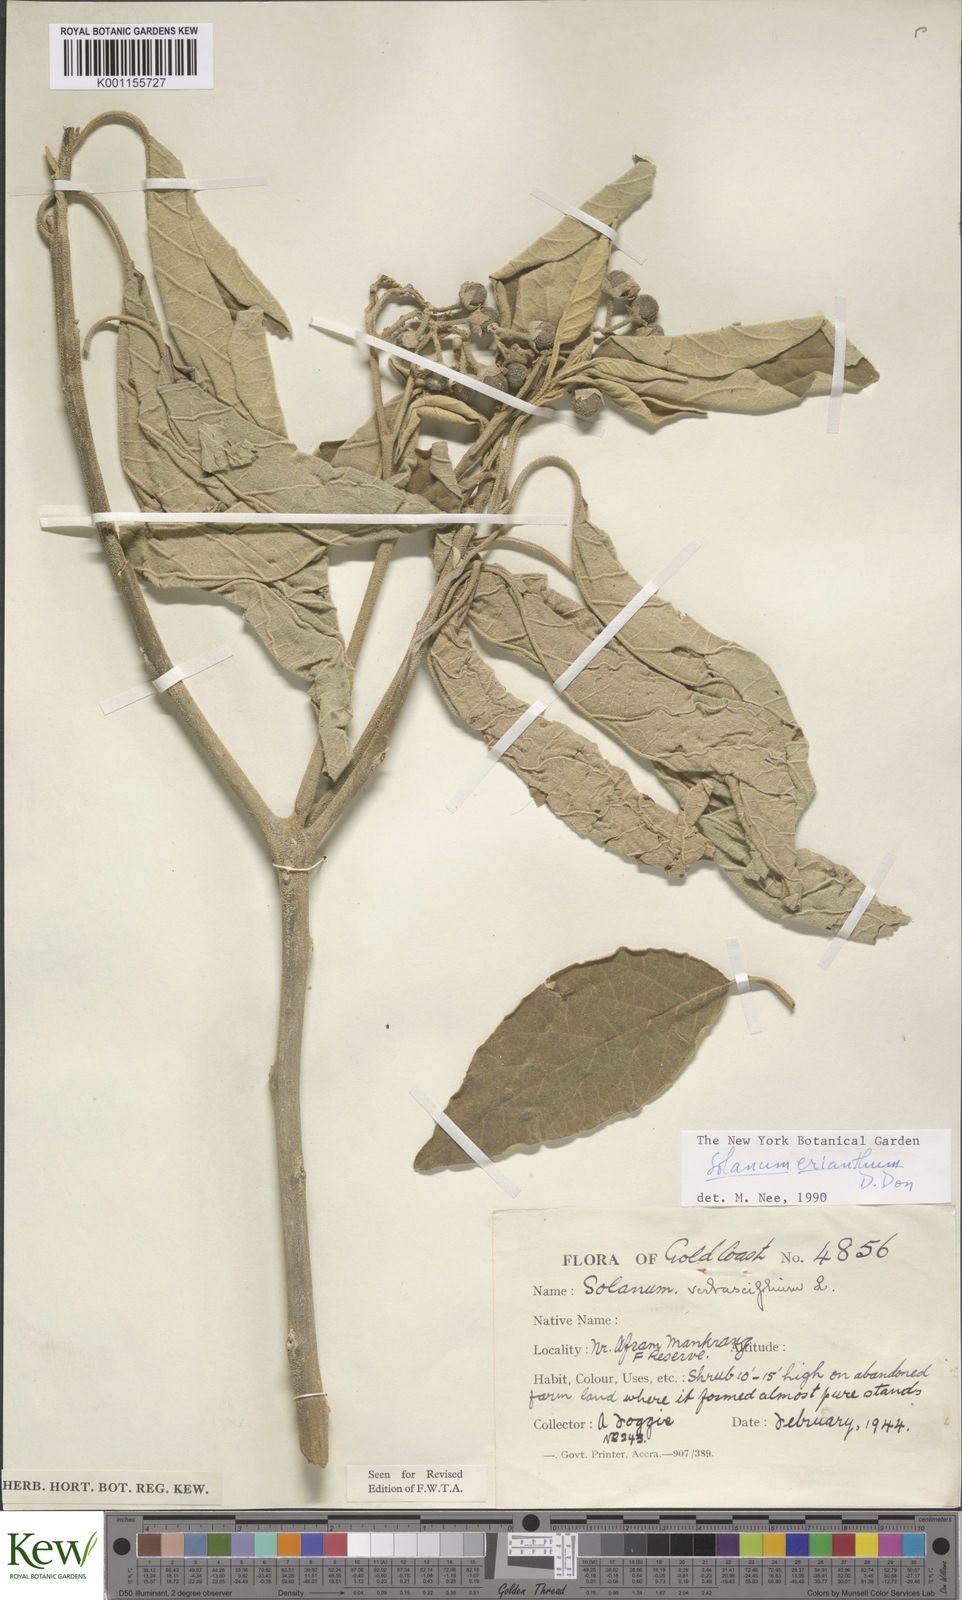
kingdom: Plantae
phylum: Tracheophyta
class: Magnoliopsida
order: Solanales
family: Solanaceae
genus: Solanum
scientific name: Solanum erianthum
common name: Tobacco-tree
